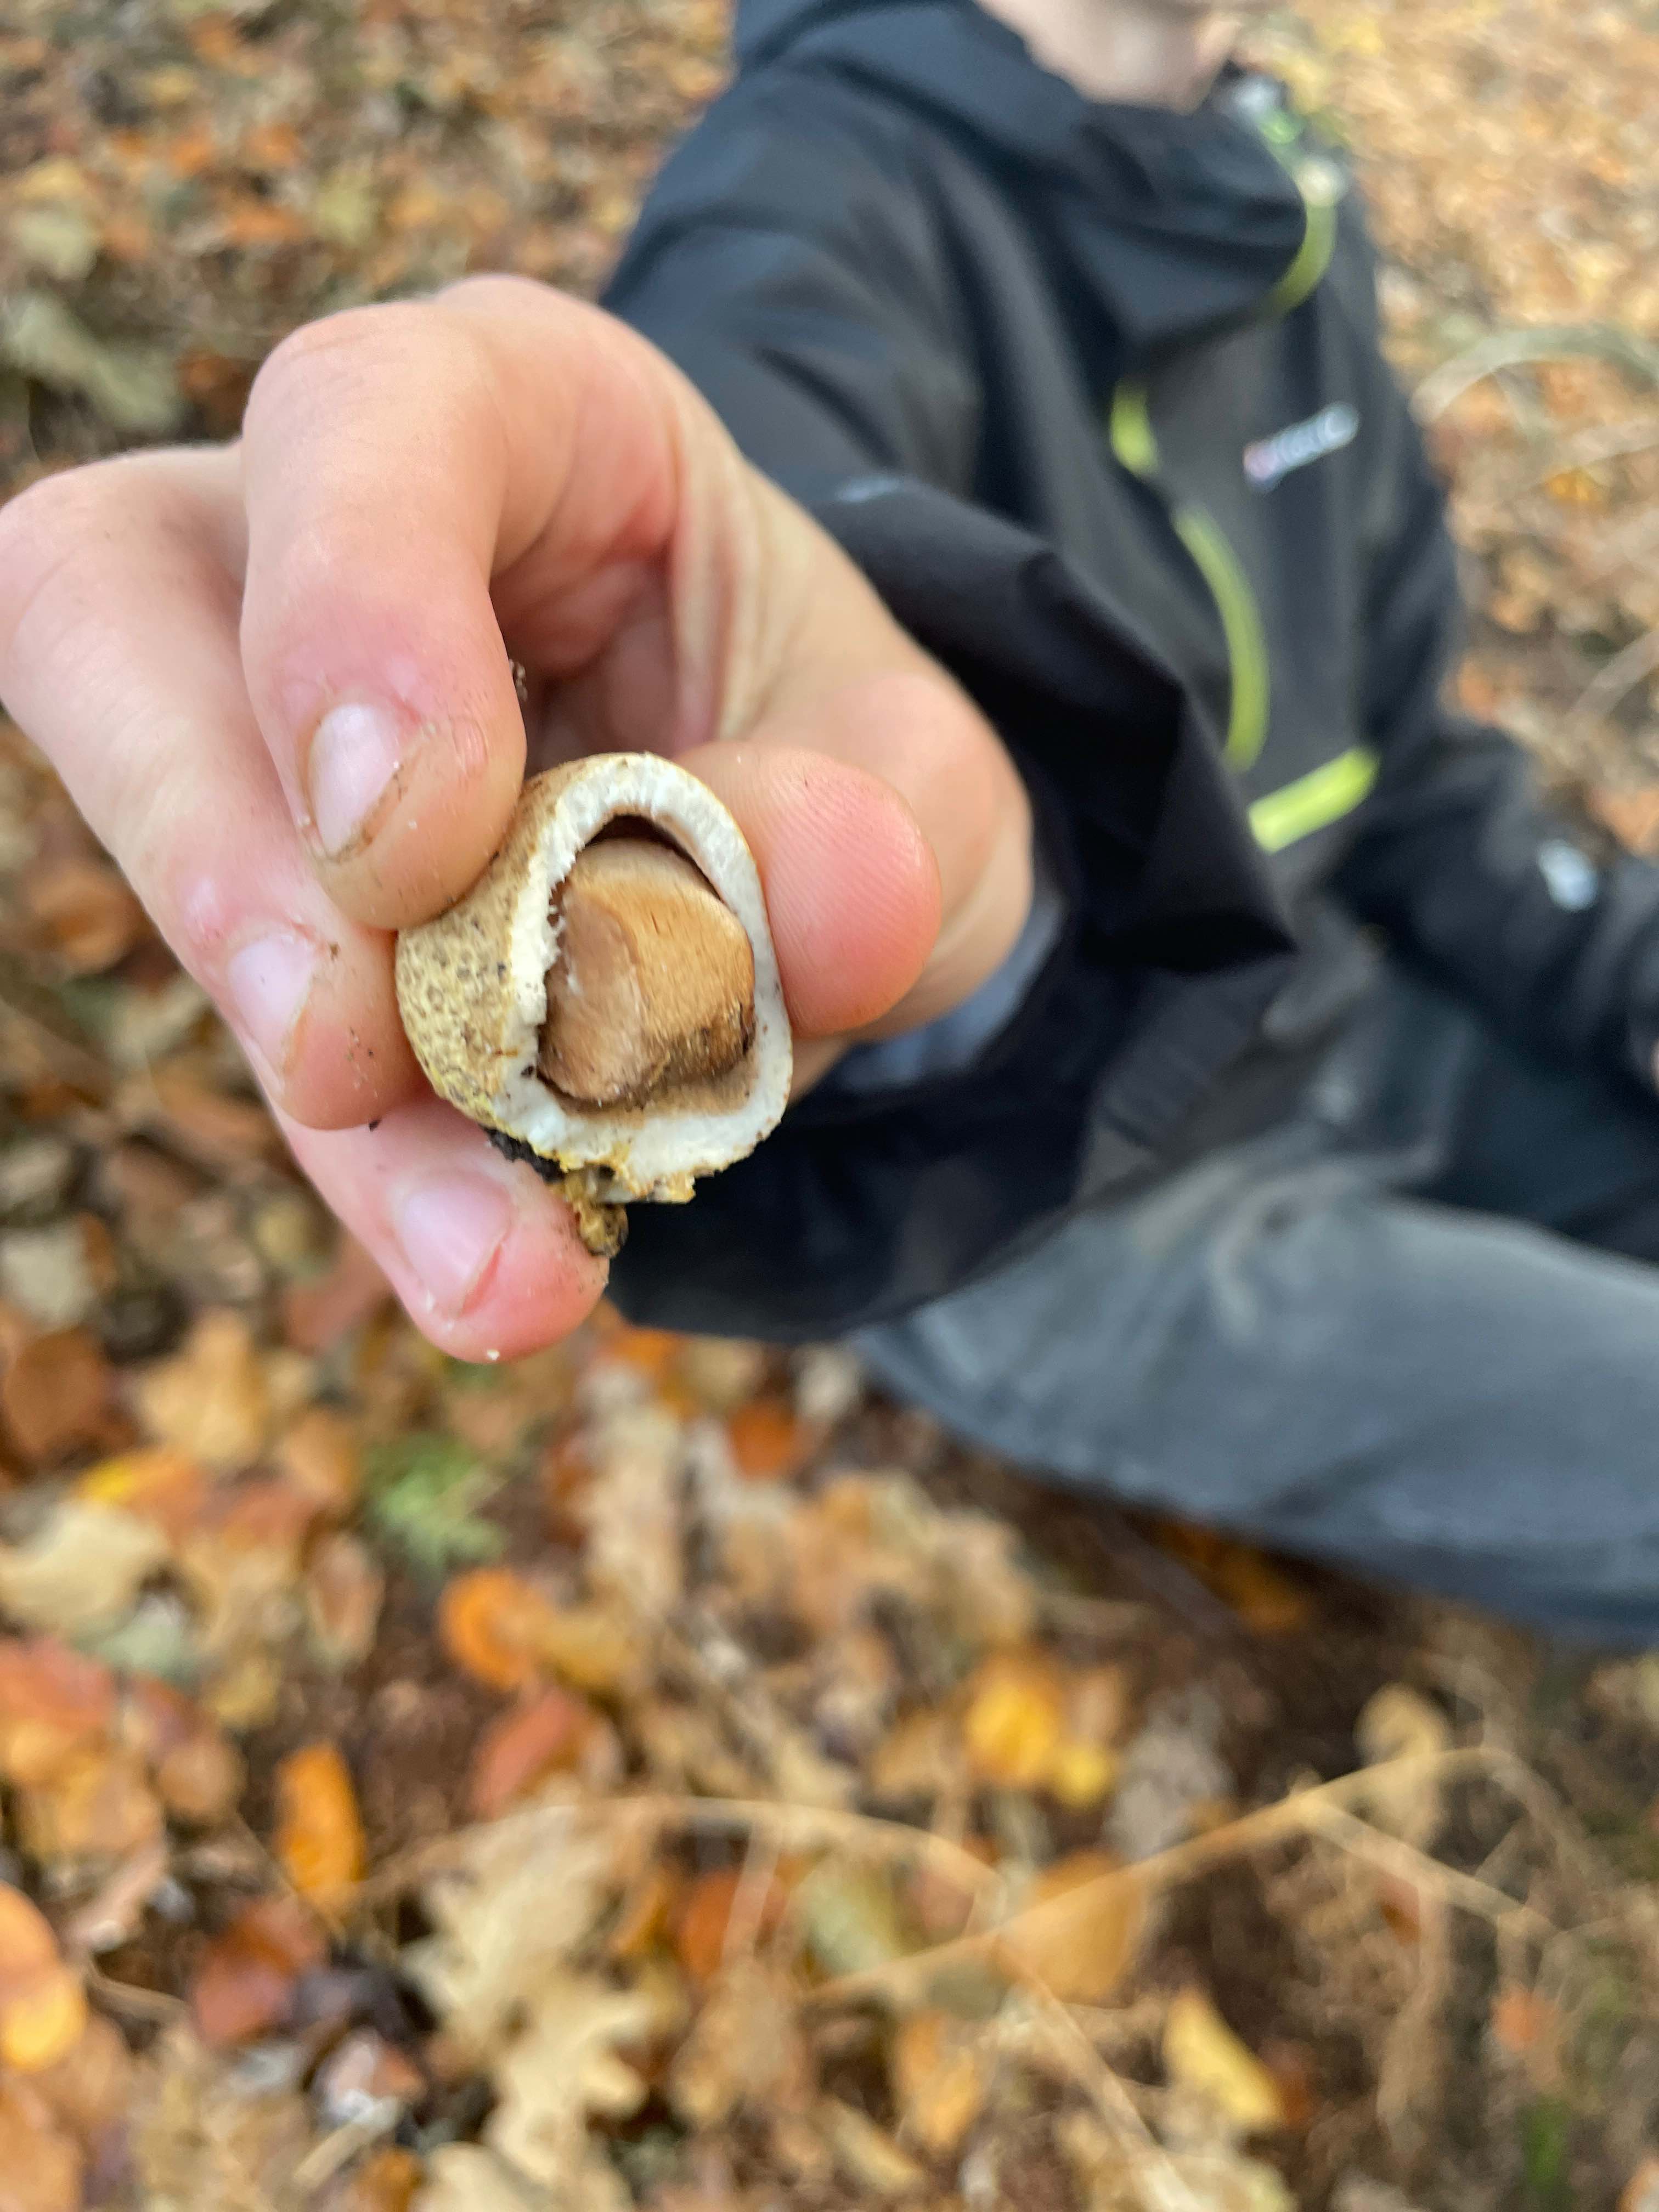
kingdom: Fungi
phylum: Basidiomycota
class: Agaricomycetes
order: Boletales
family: Sclerodermataceae
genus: Scleroderma
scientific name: Scleroderma citrinum
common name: almindelig bruskbold
